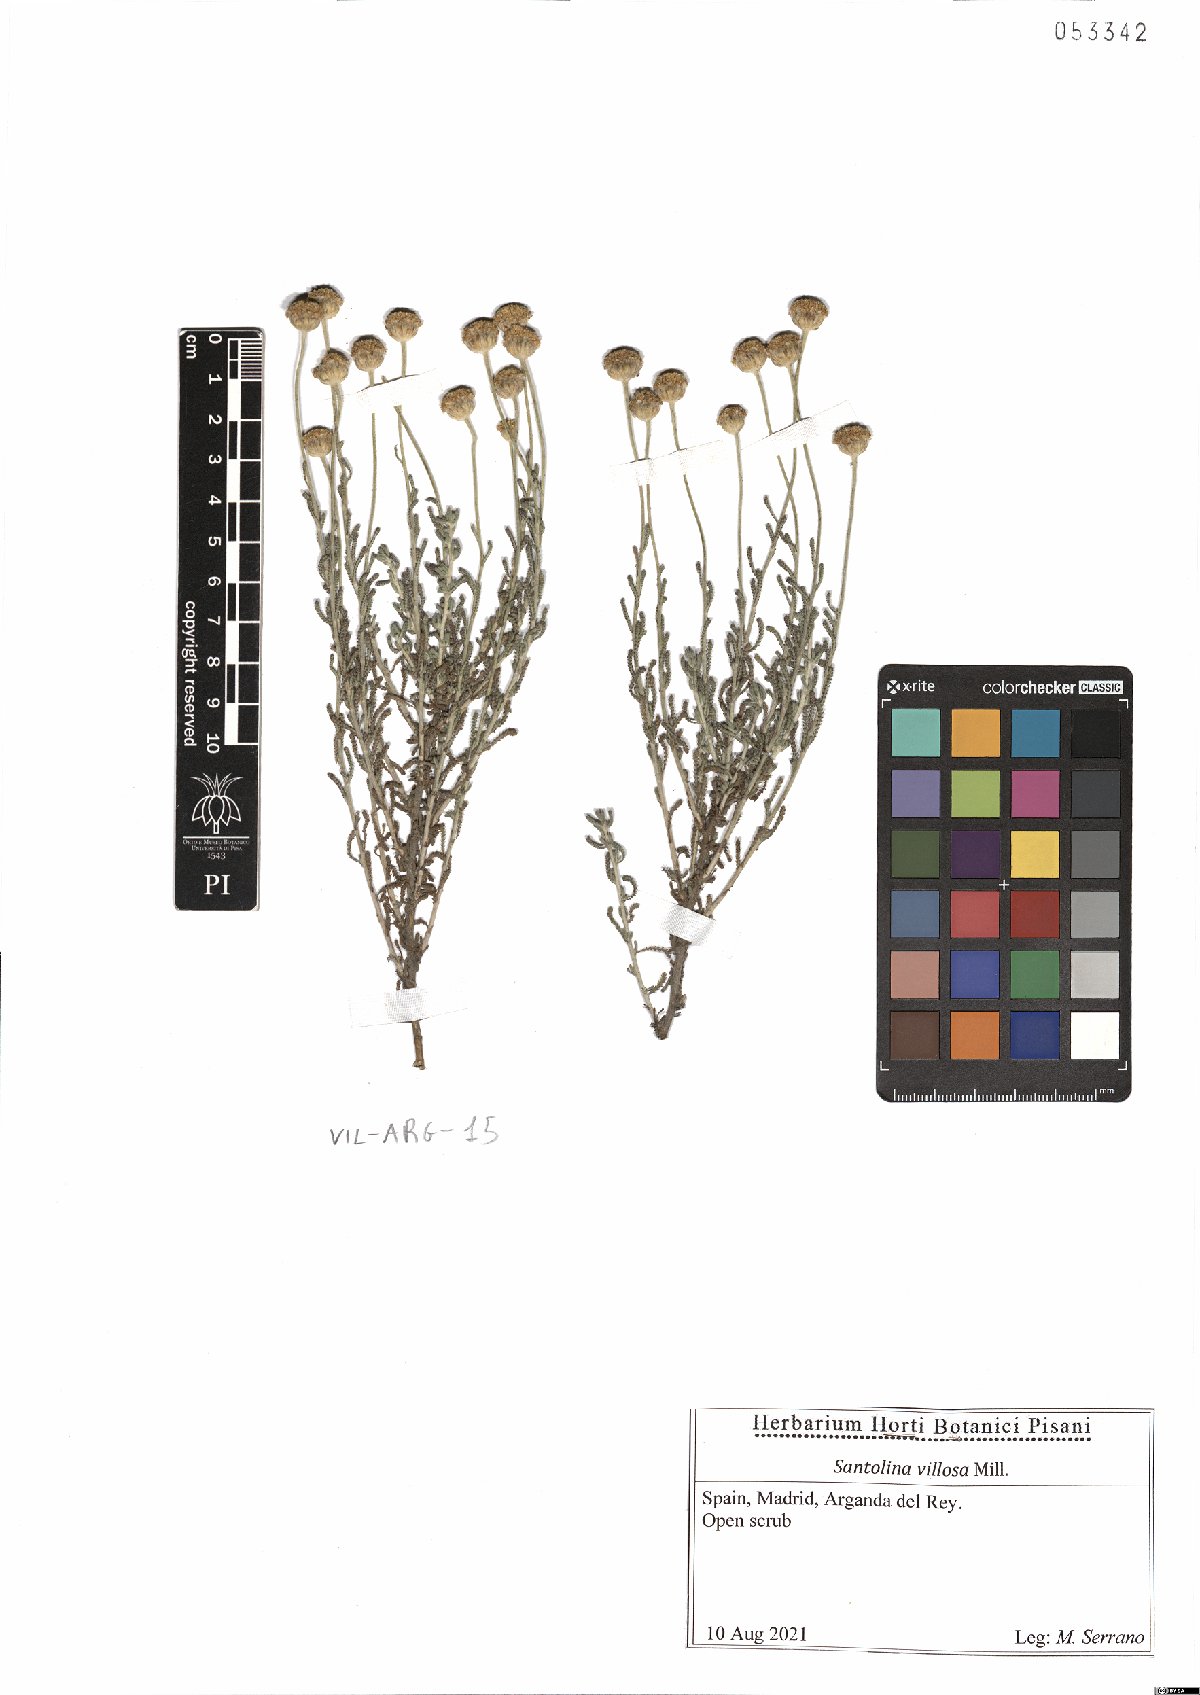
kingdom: Plantae
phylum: Tracheophyta
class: Magnoliopsida
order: Asterales
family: Asteraceae
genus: Santolina
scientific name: Santolina chamaecyparissus
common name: Lavender-cotton
